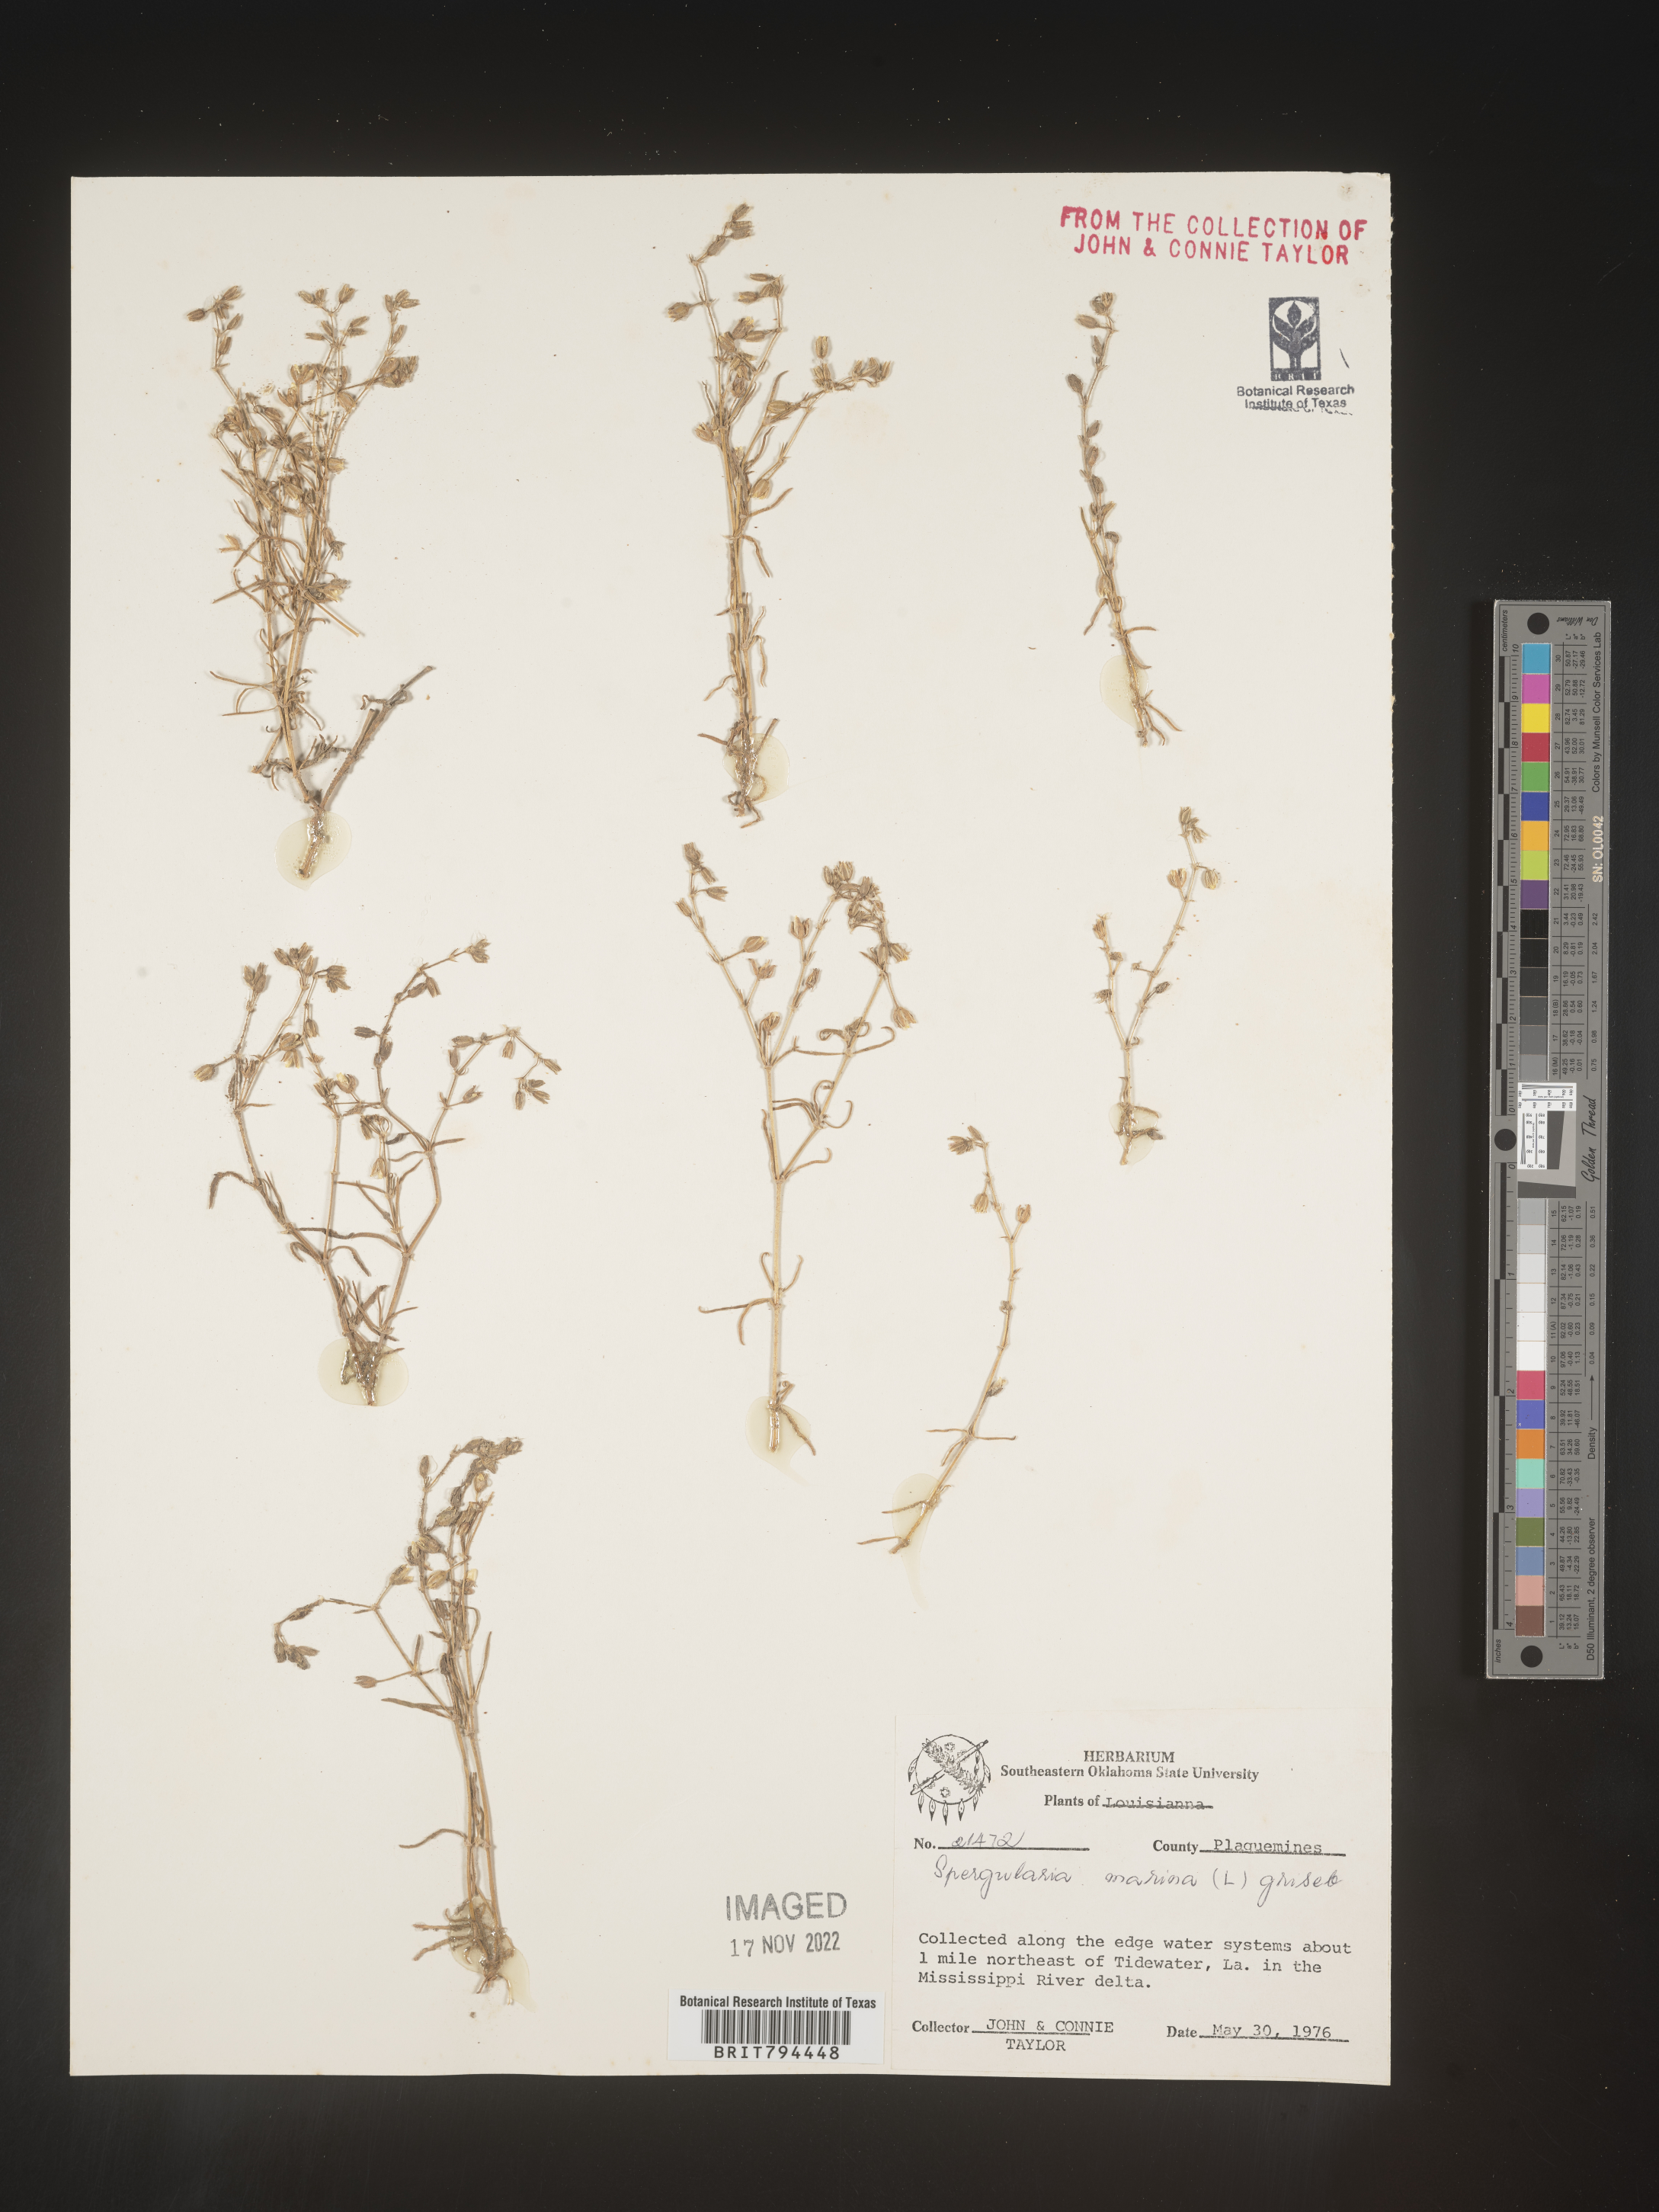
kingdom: Plantae
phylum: Tracheophyta
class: Magnoliopsida
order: Caryophyllales
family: Caryophyllaceae
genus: Spergularia
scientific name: Spergularia marina
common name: Lesser sea-spurrey
